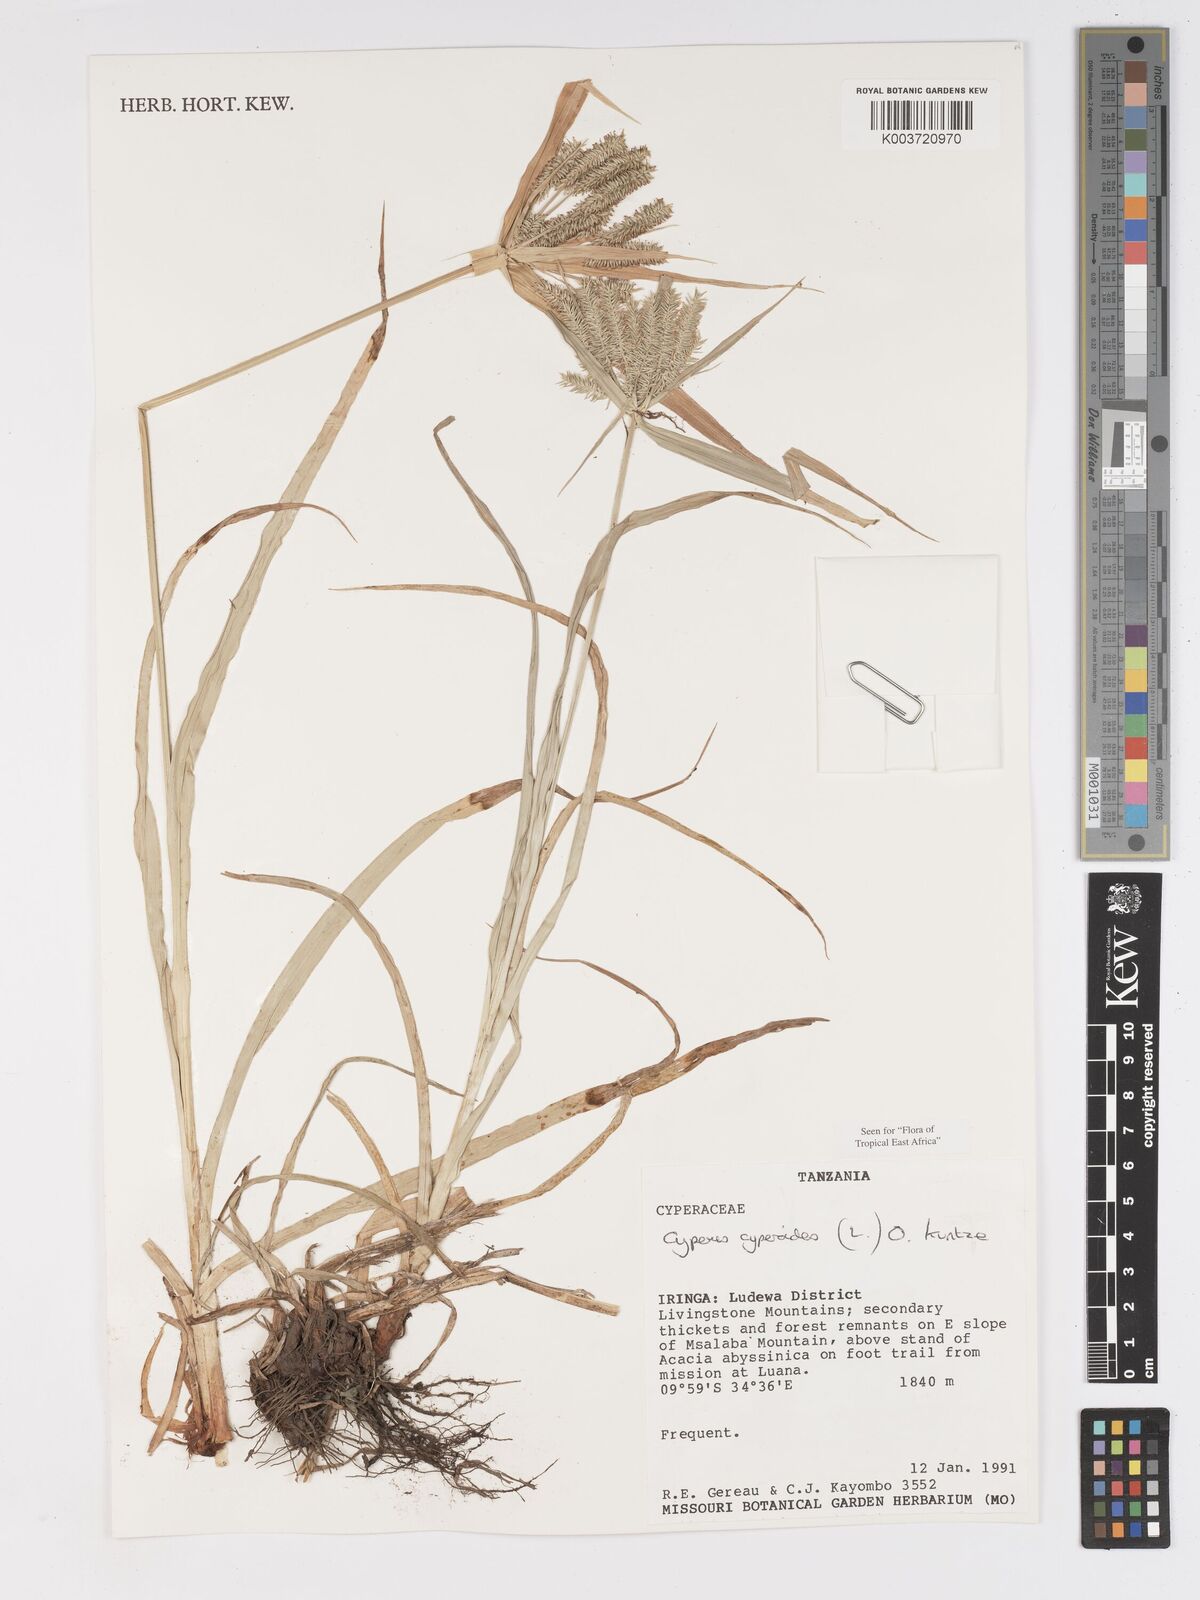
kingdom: Plantae
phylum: Tracheophyta
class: Liliopsida
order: Poales
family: Cyperaceae
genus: Cyperus
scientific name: Cyperus cyperoides
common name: Pacific island flat sedge
